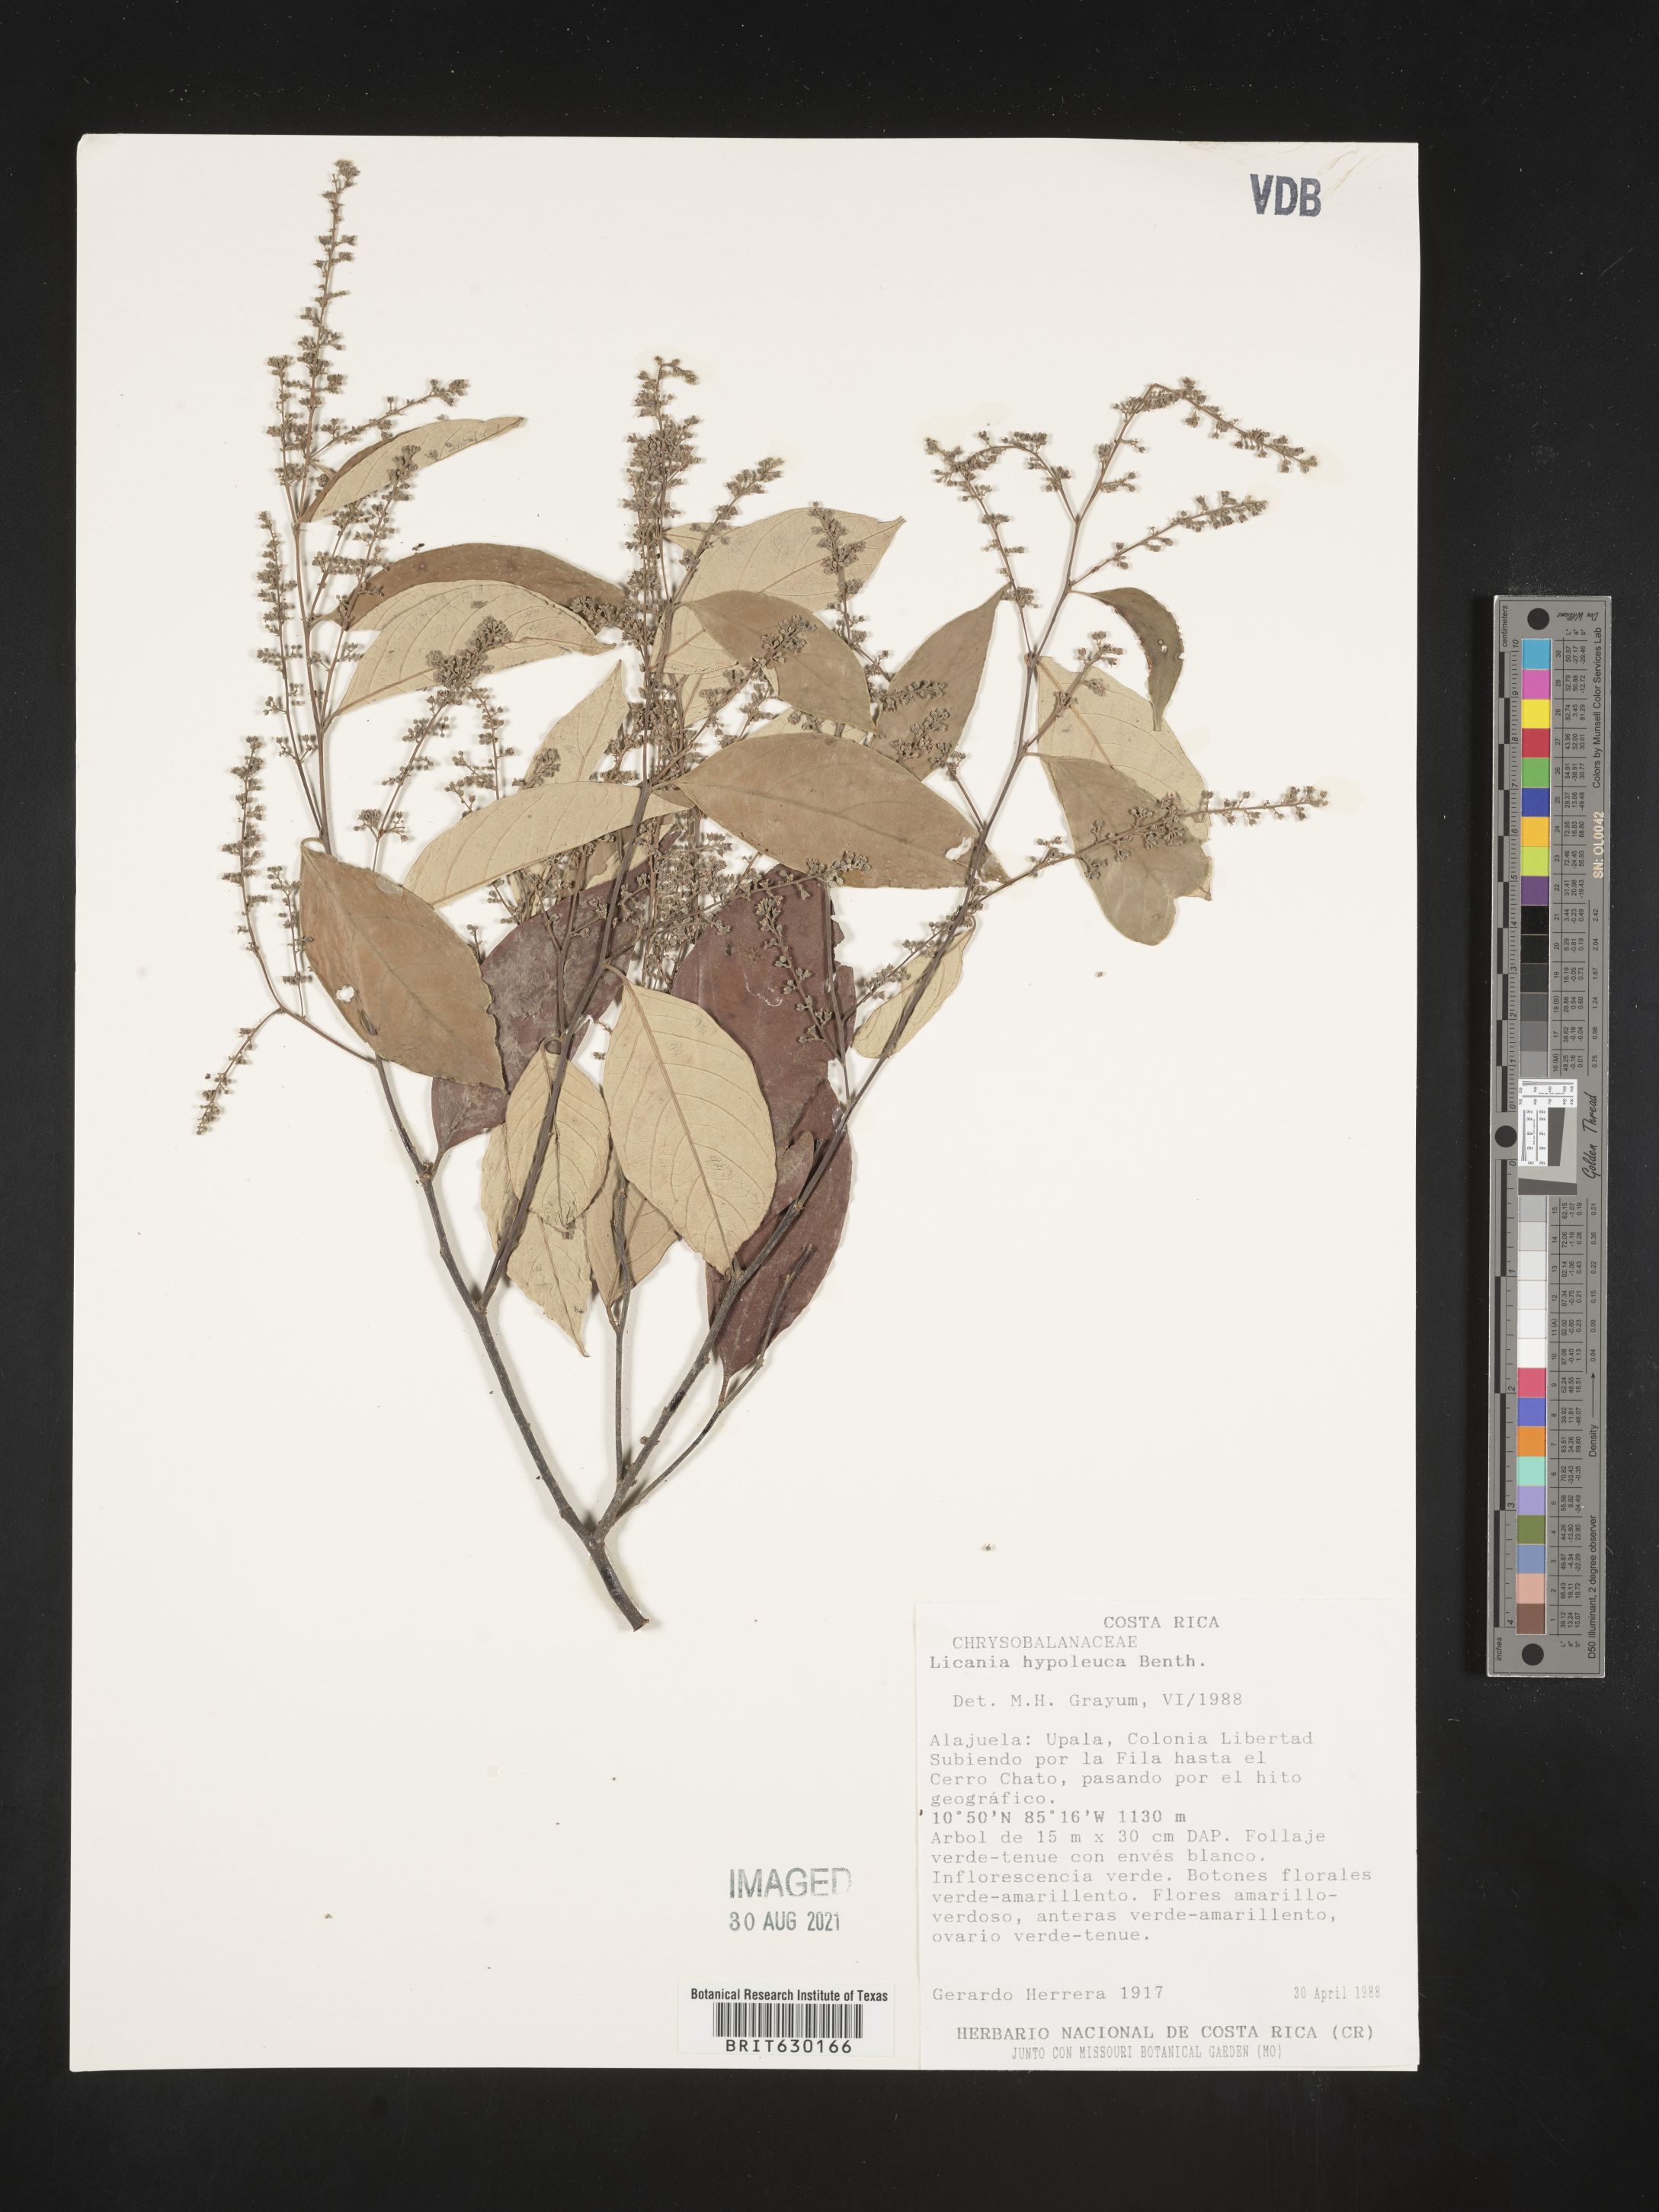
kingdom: Plantae
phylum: Tracheophyta
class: Magnoliopsida
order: Malpighiales
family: Chrysobalanaceae
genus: Licania
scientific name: Licania hypoleuca
